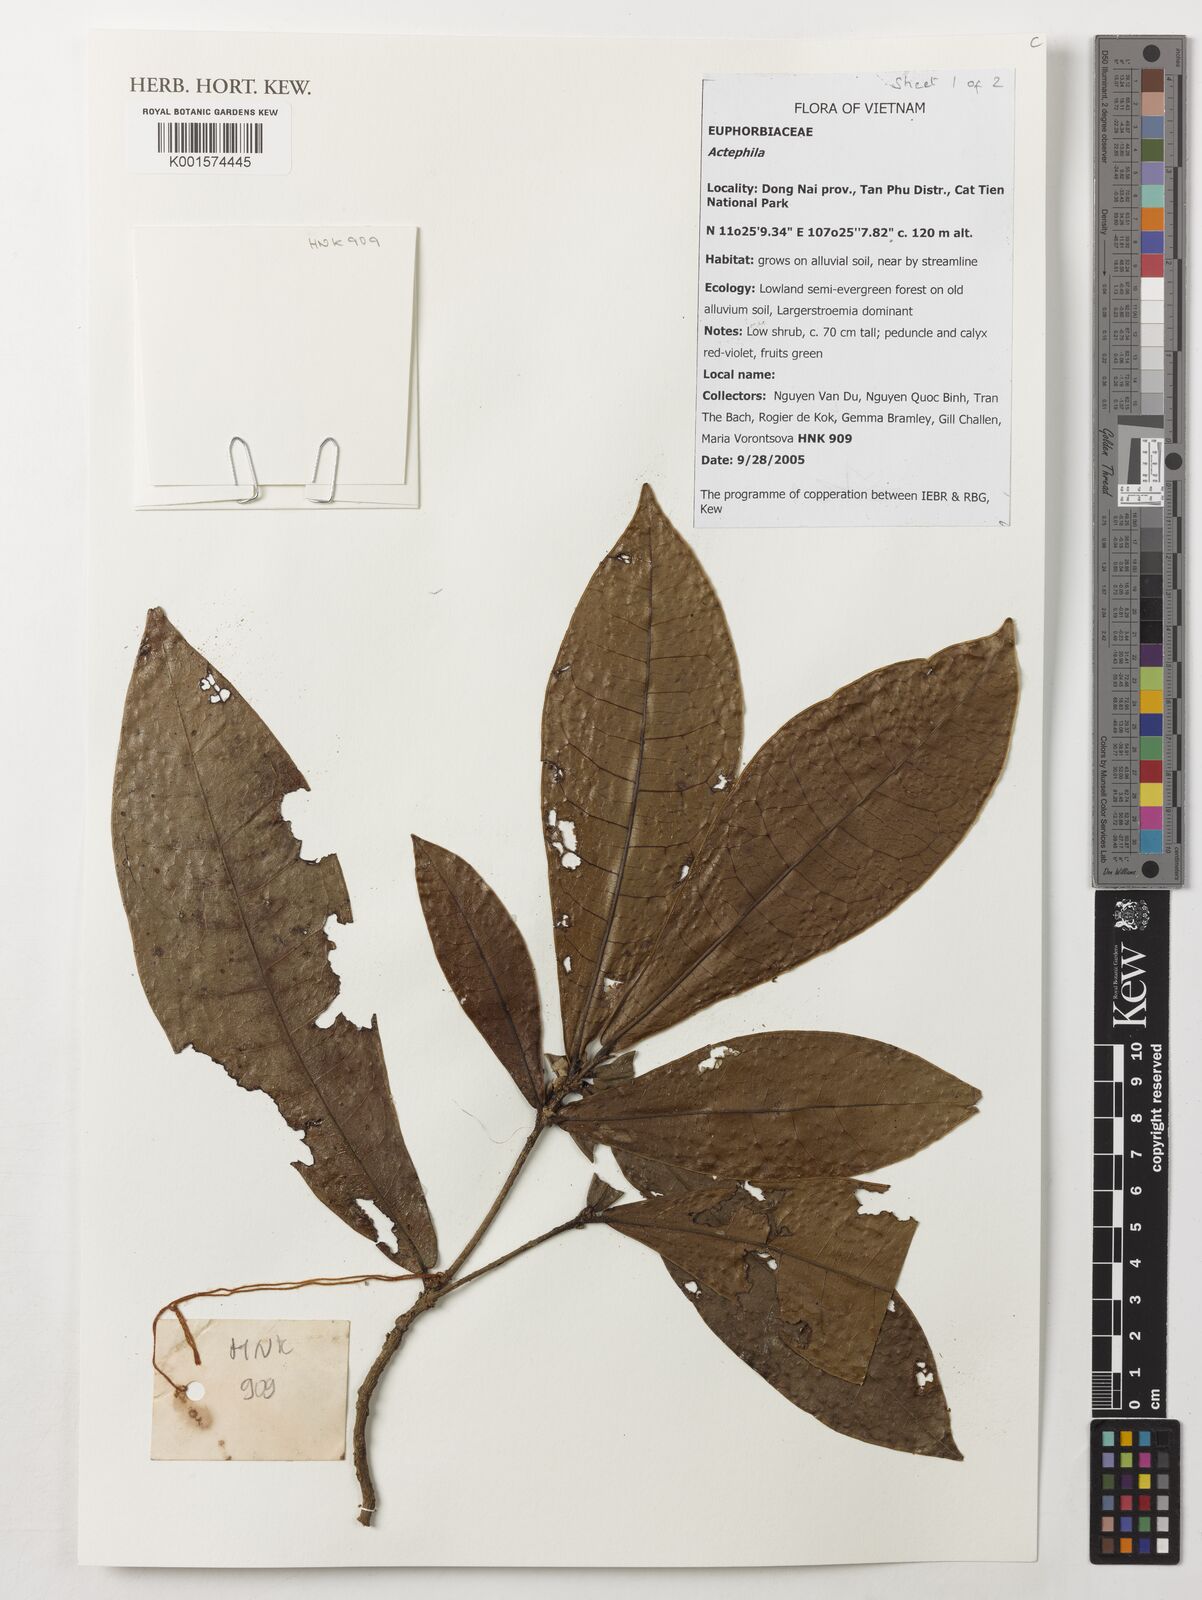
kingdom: Plantae
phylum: Tracheophyta
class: Magnoliopsida
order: Malpighiales
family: Phyllanthaceae
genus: Actephila
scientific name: Actephila
